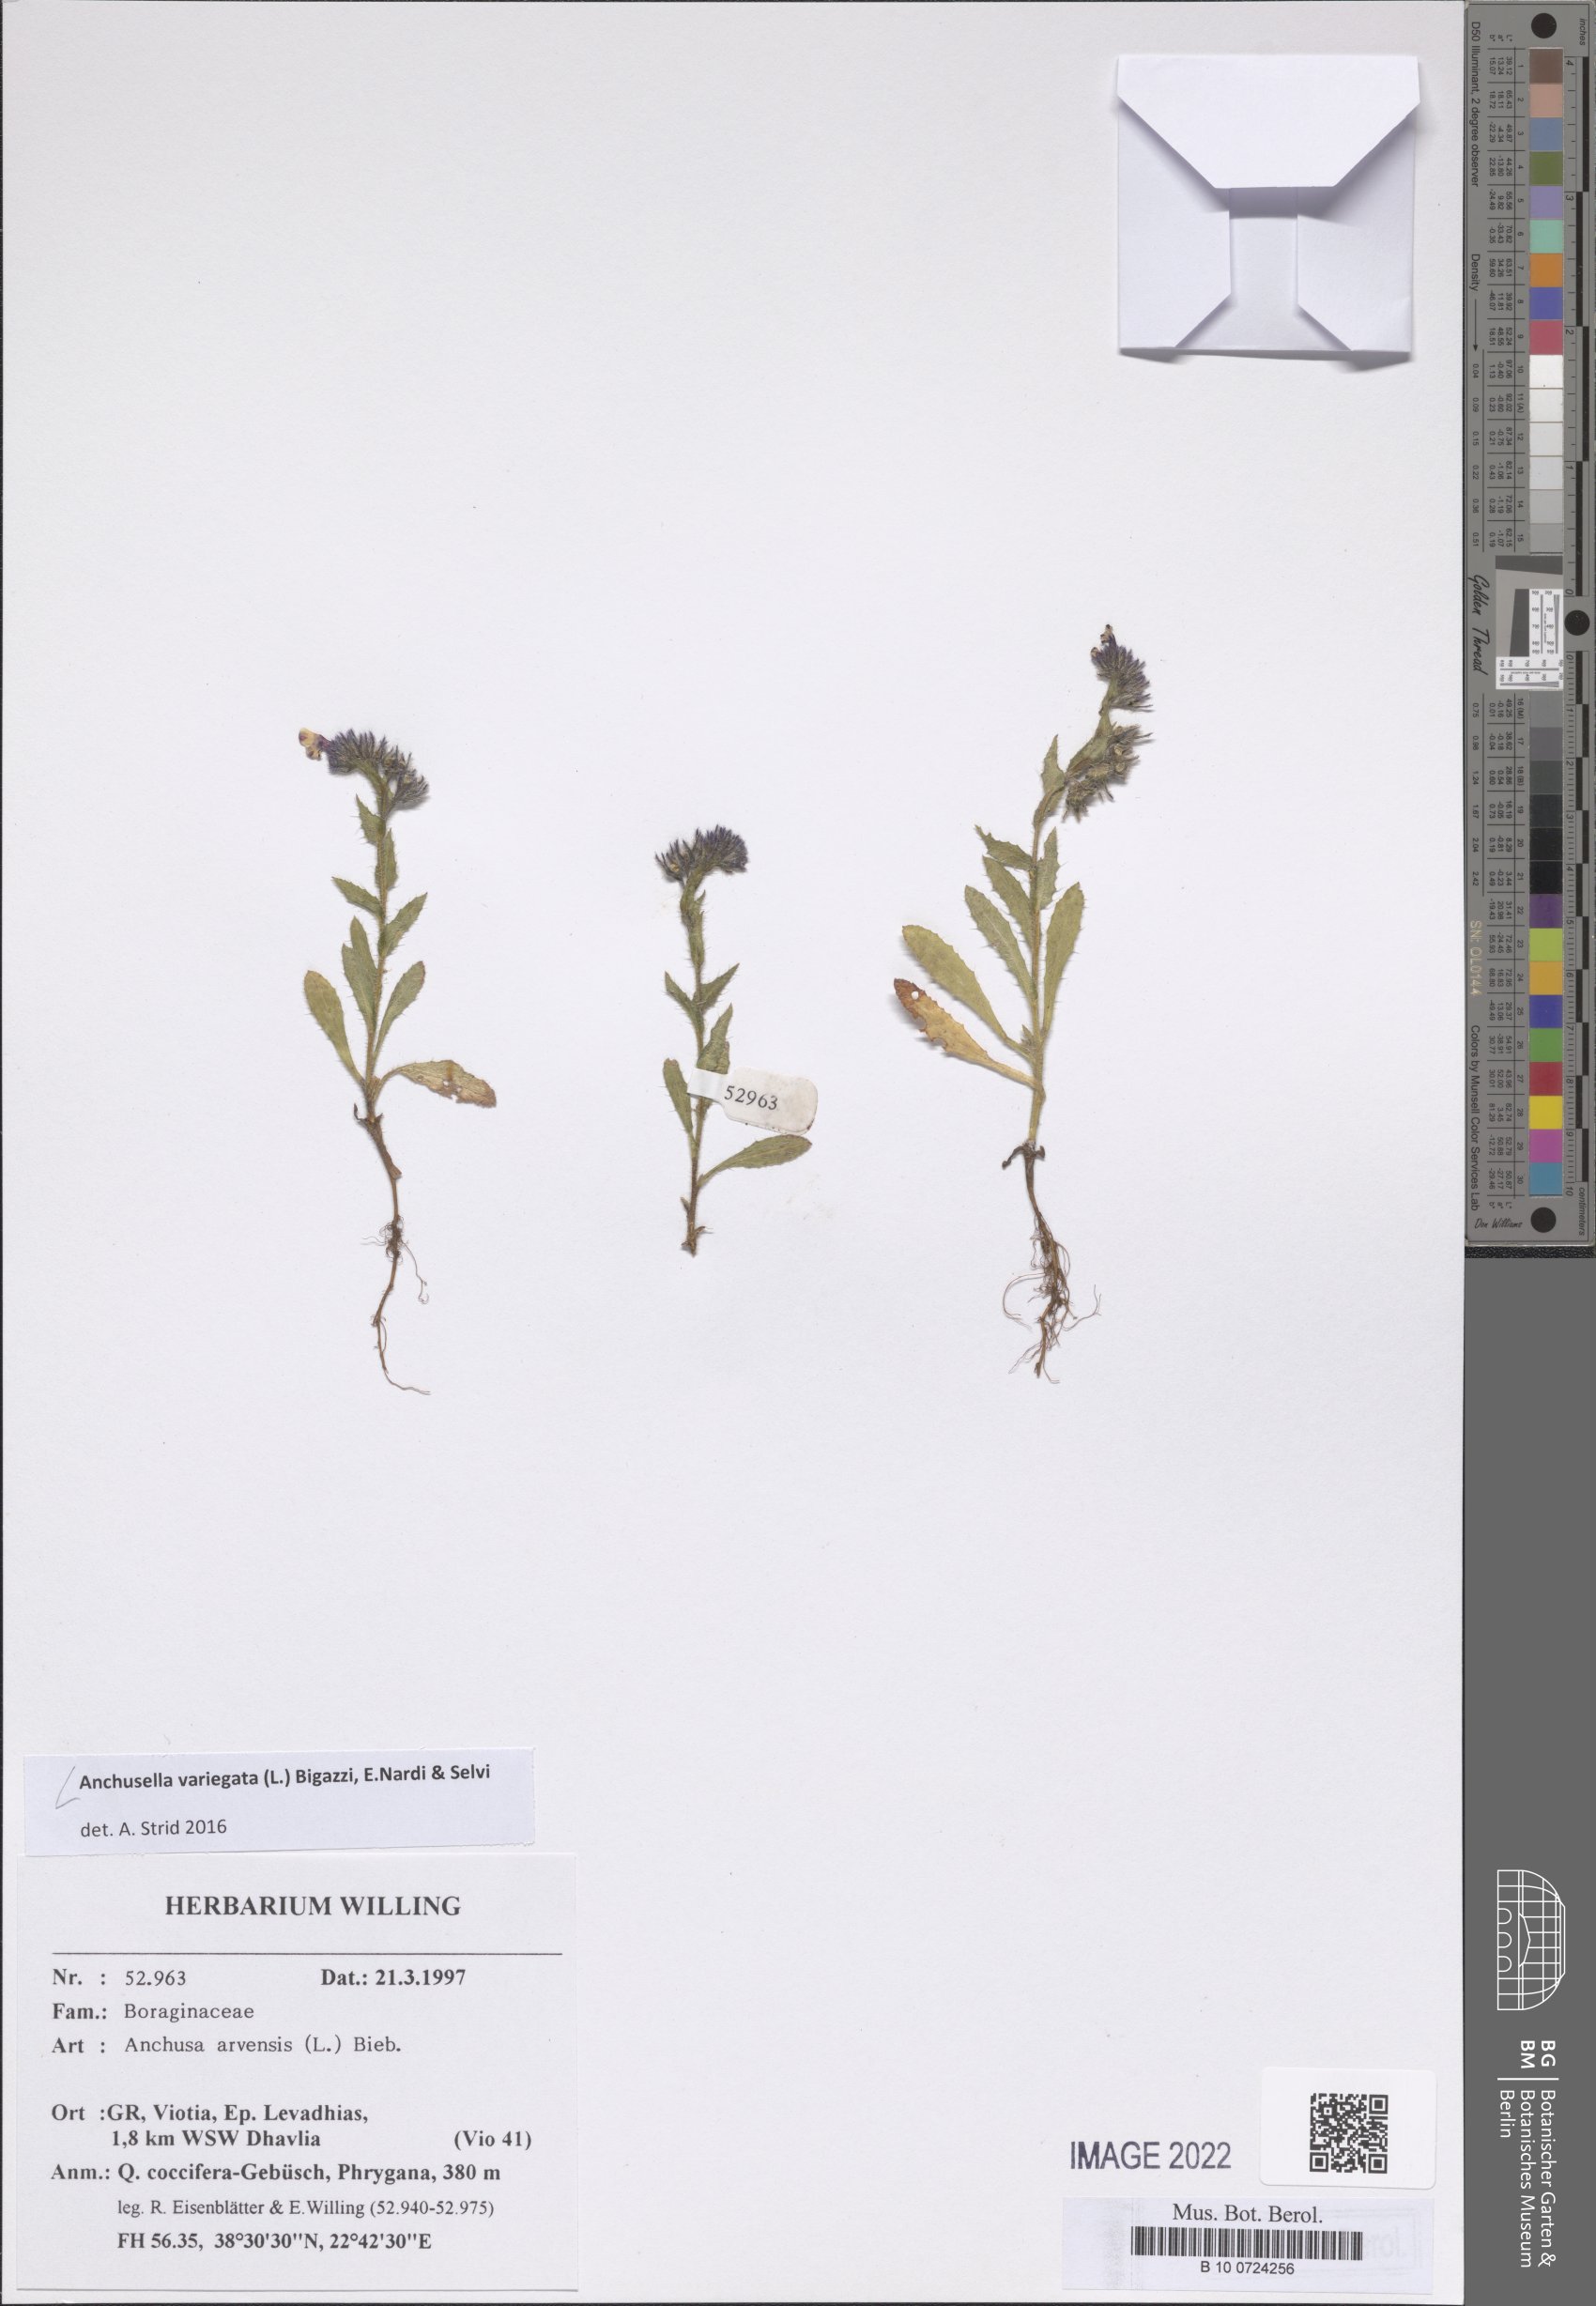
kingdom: Plantae
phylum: Tracheophyta
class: Magnoliopsida
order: Boraginales
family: Boraginaceae
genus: Anchusella
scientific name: Anchusella variegata
